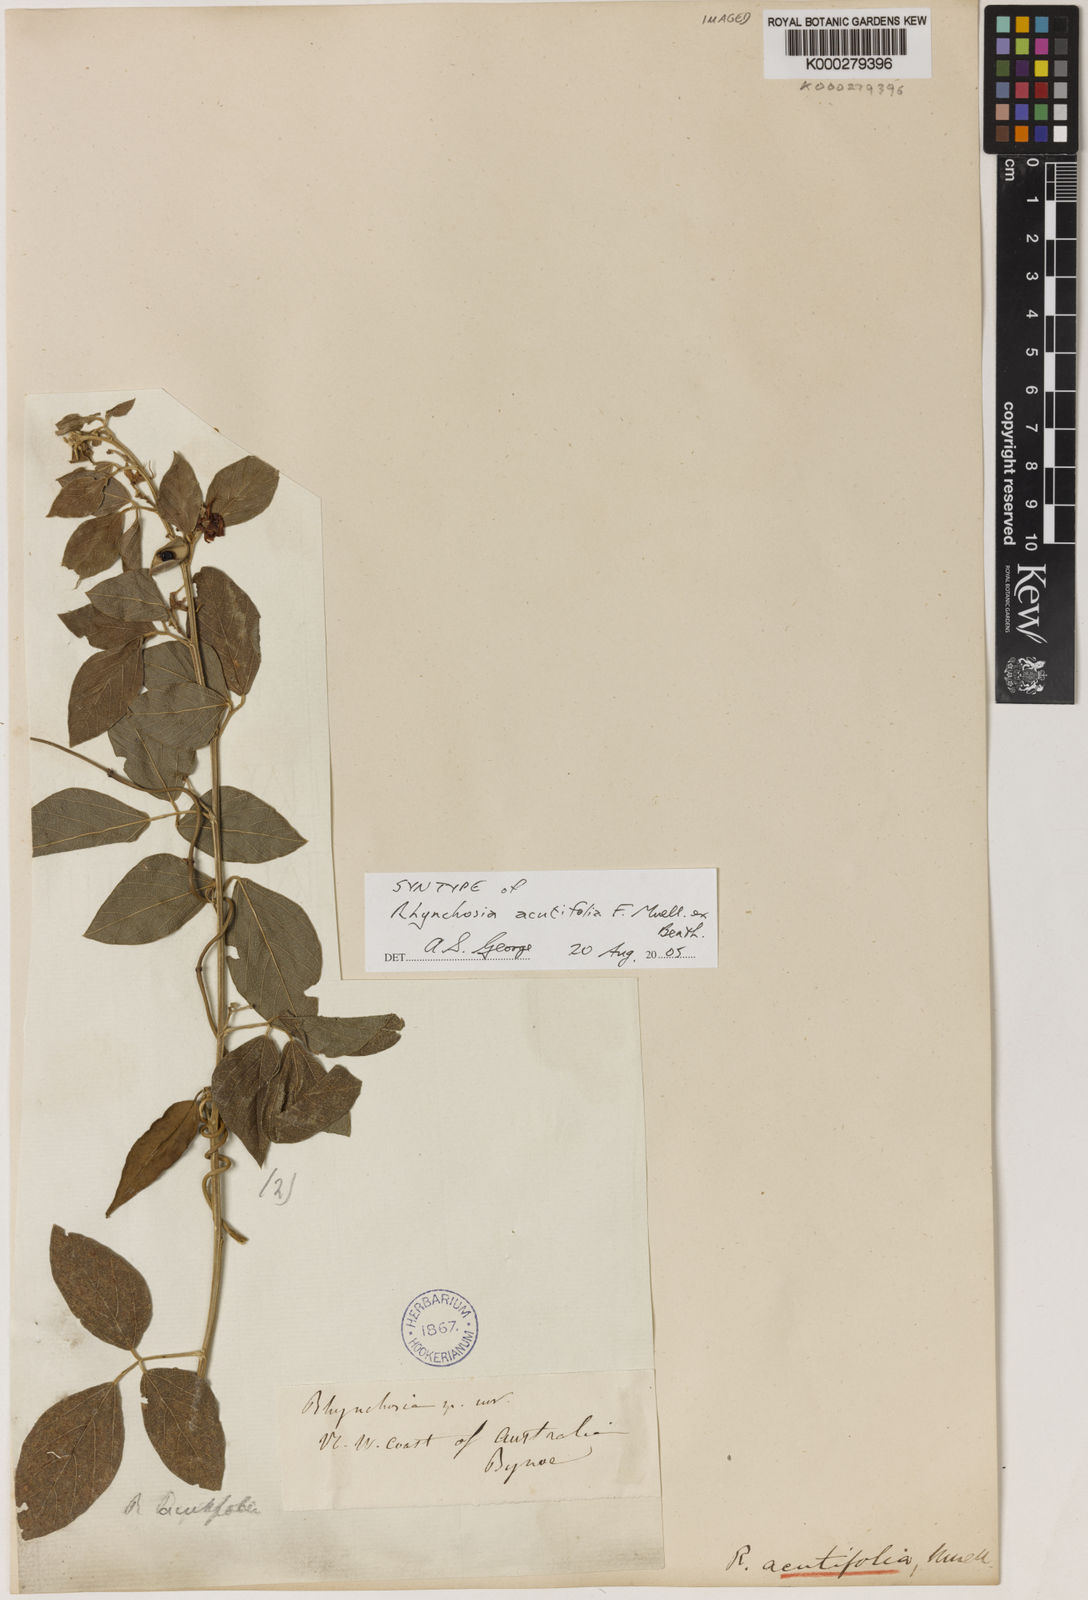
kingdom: Plantae
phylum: Tracheophyta
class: Magnoliopsida
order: Fabales
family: Fabaceae
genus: Cajanus
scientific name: Cajanus acutifolius
